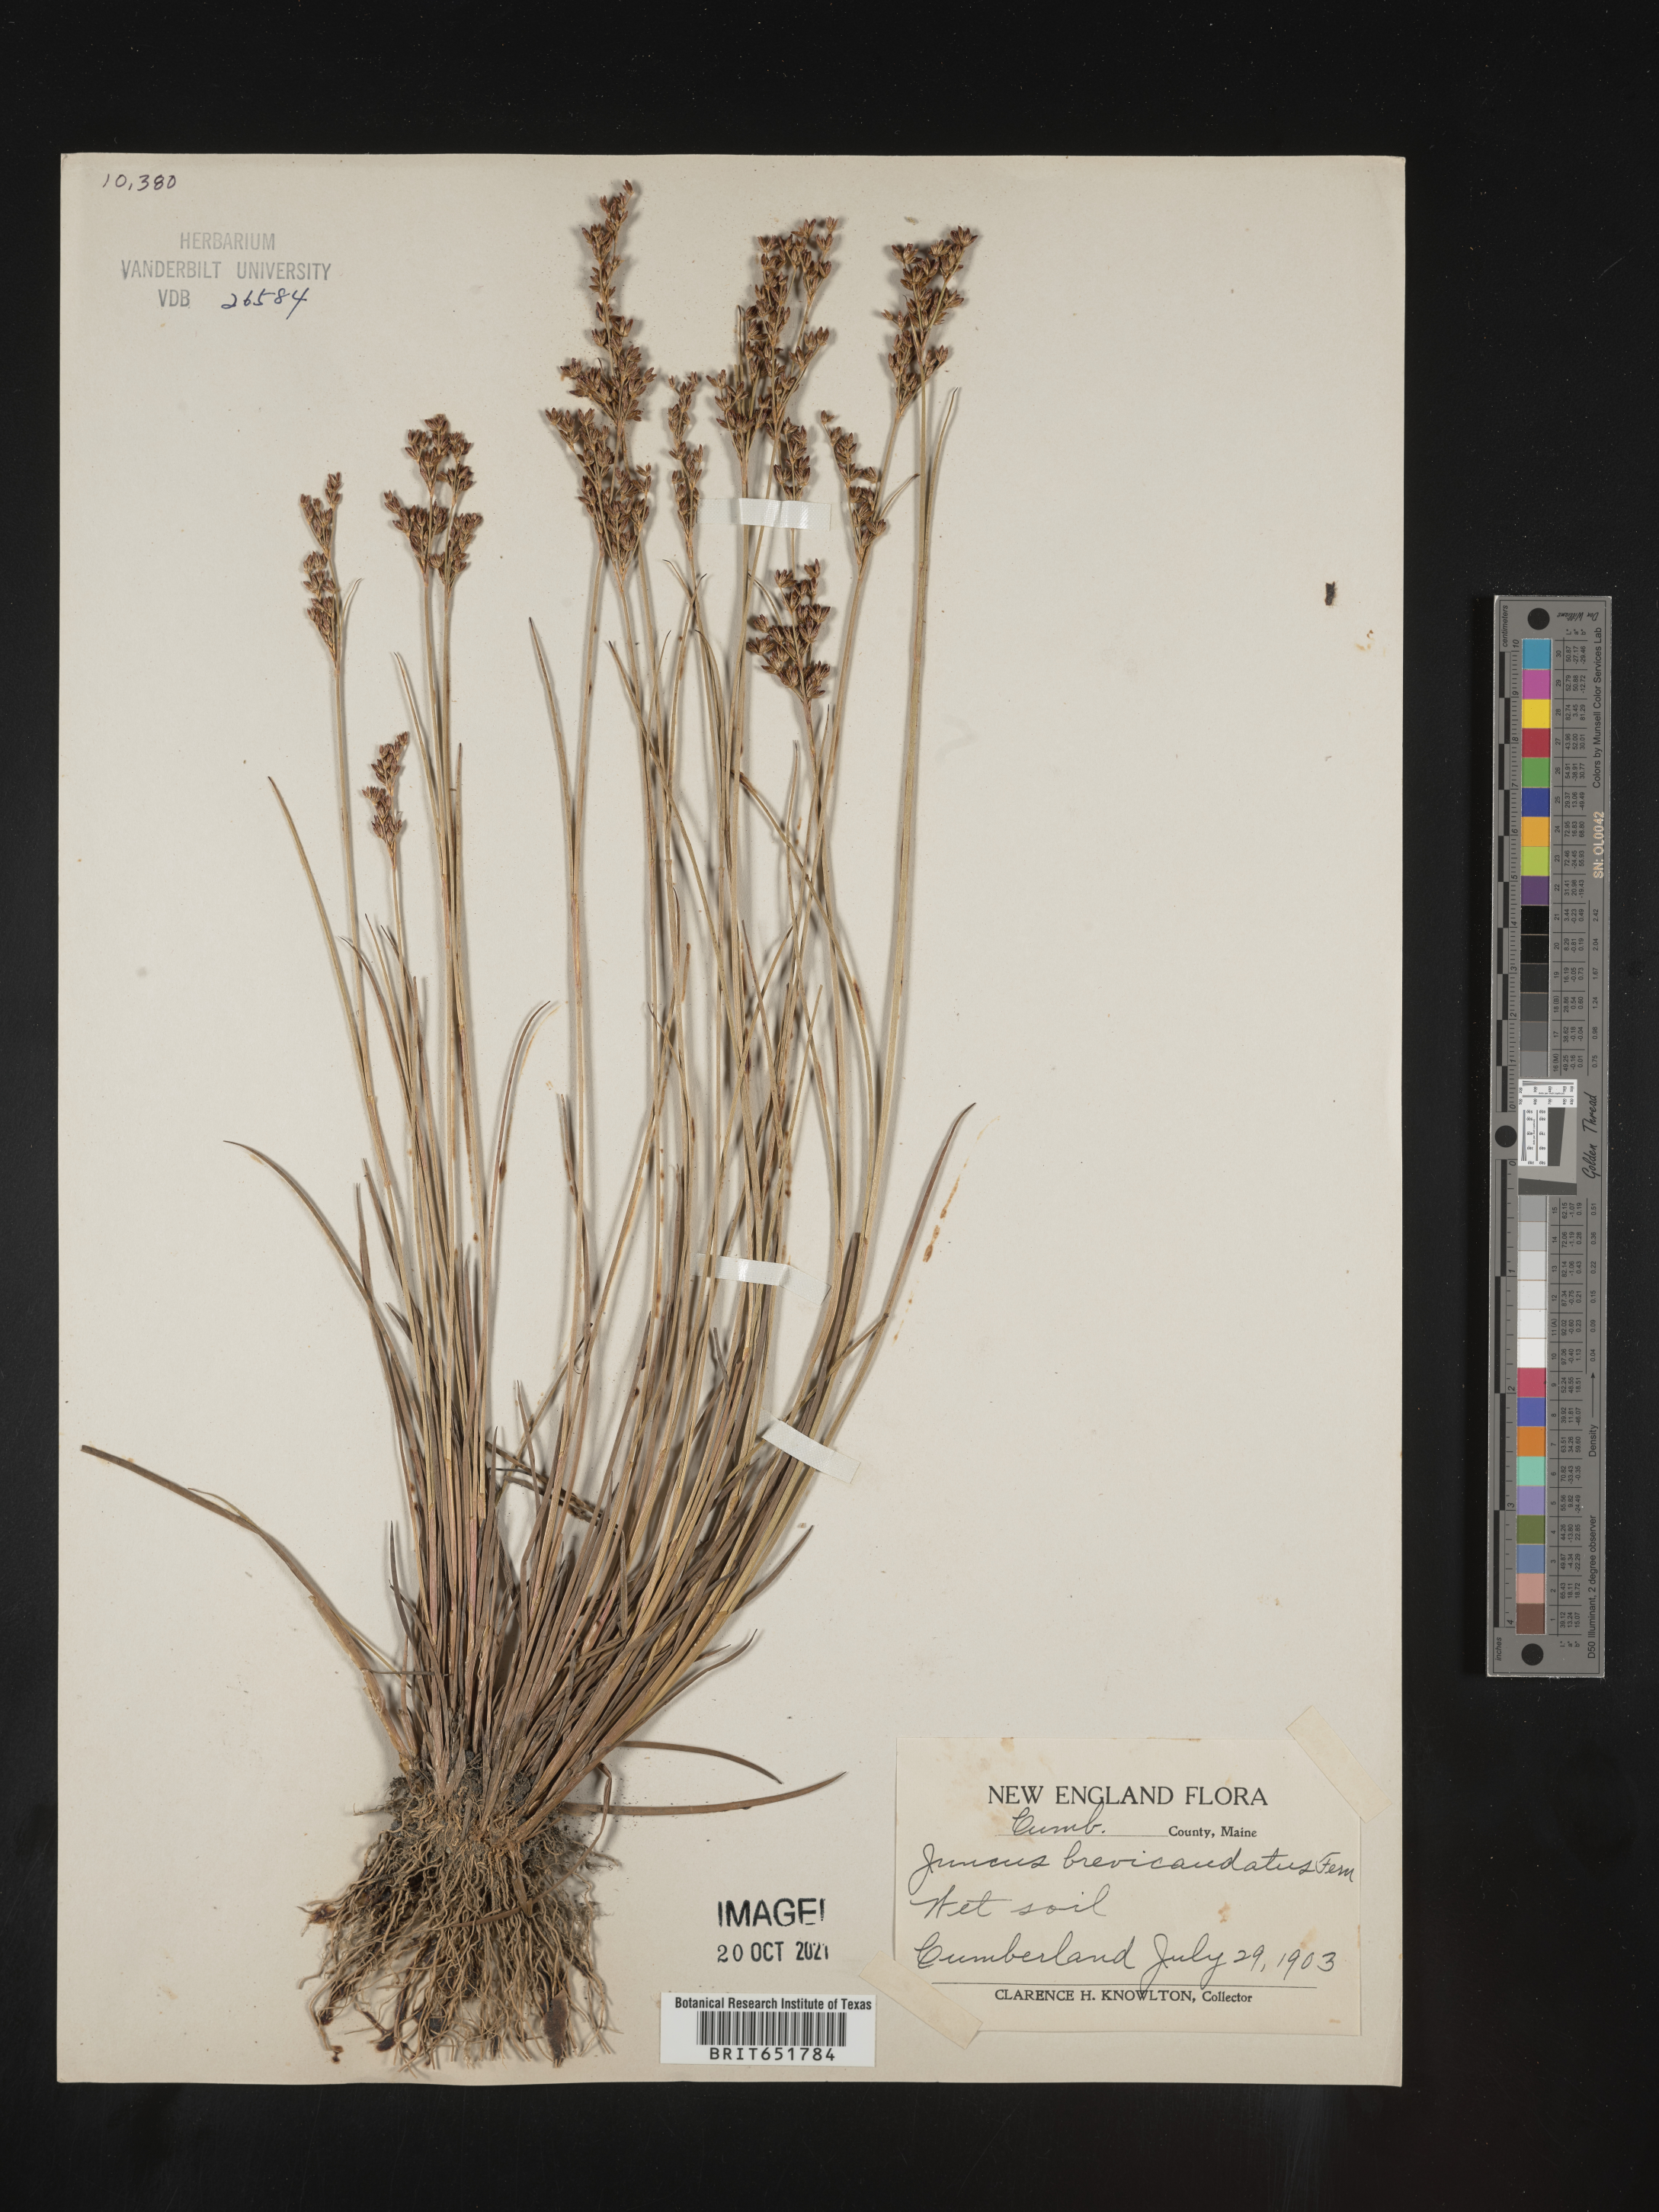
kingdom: Plantae
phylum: Tracheophyta
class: Liliopsida
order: Poales
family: Juncaceae
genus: Juncus
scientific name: Juncus brevicaudatus
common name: Narrow-panicle rush
